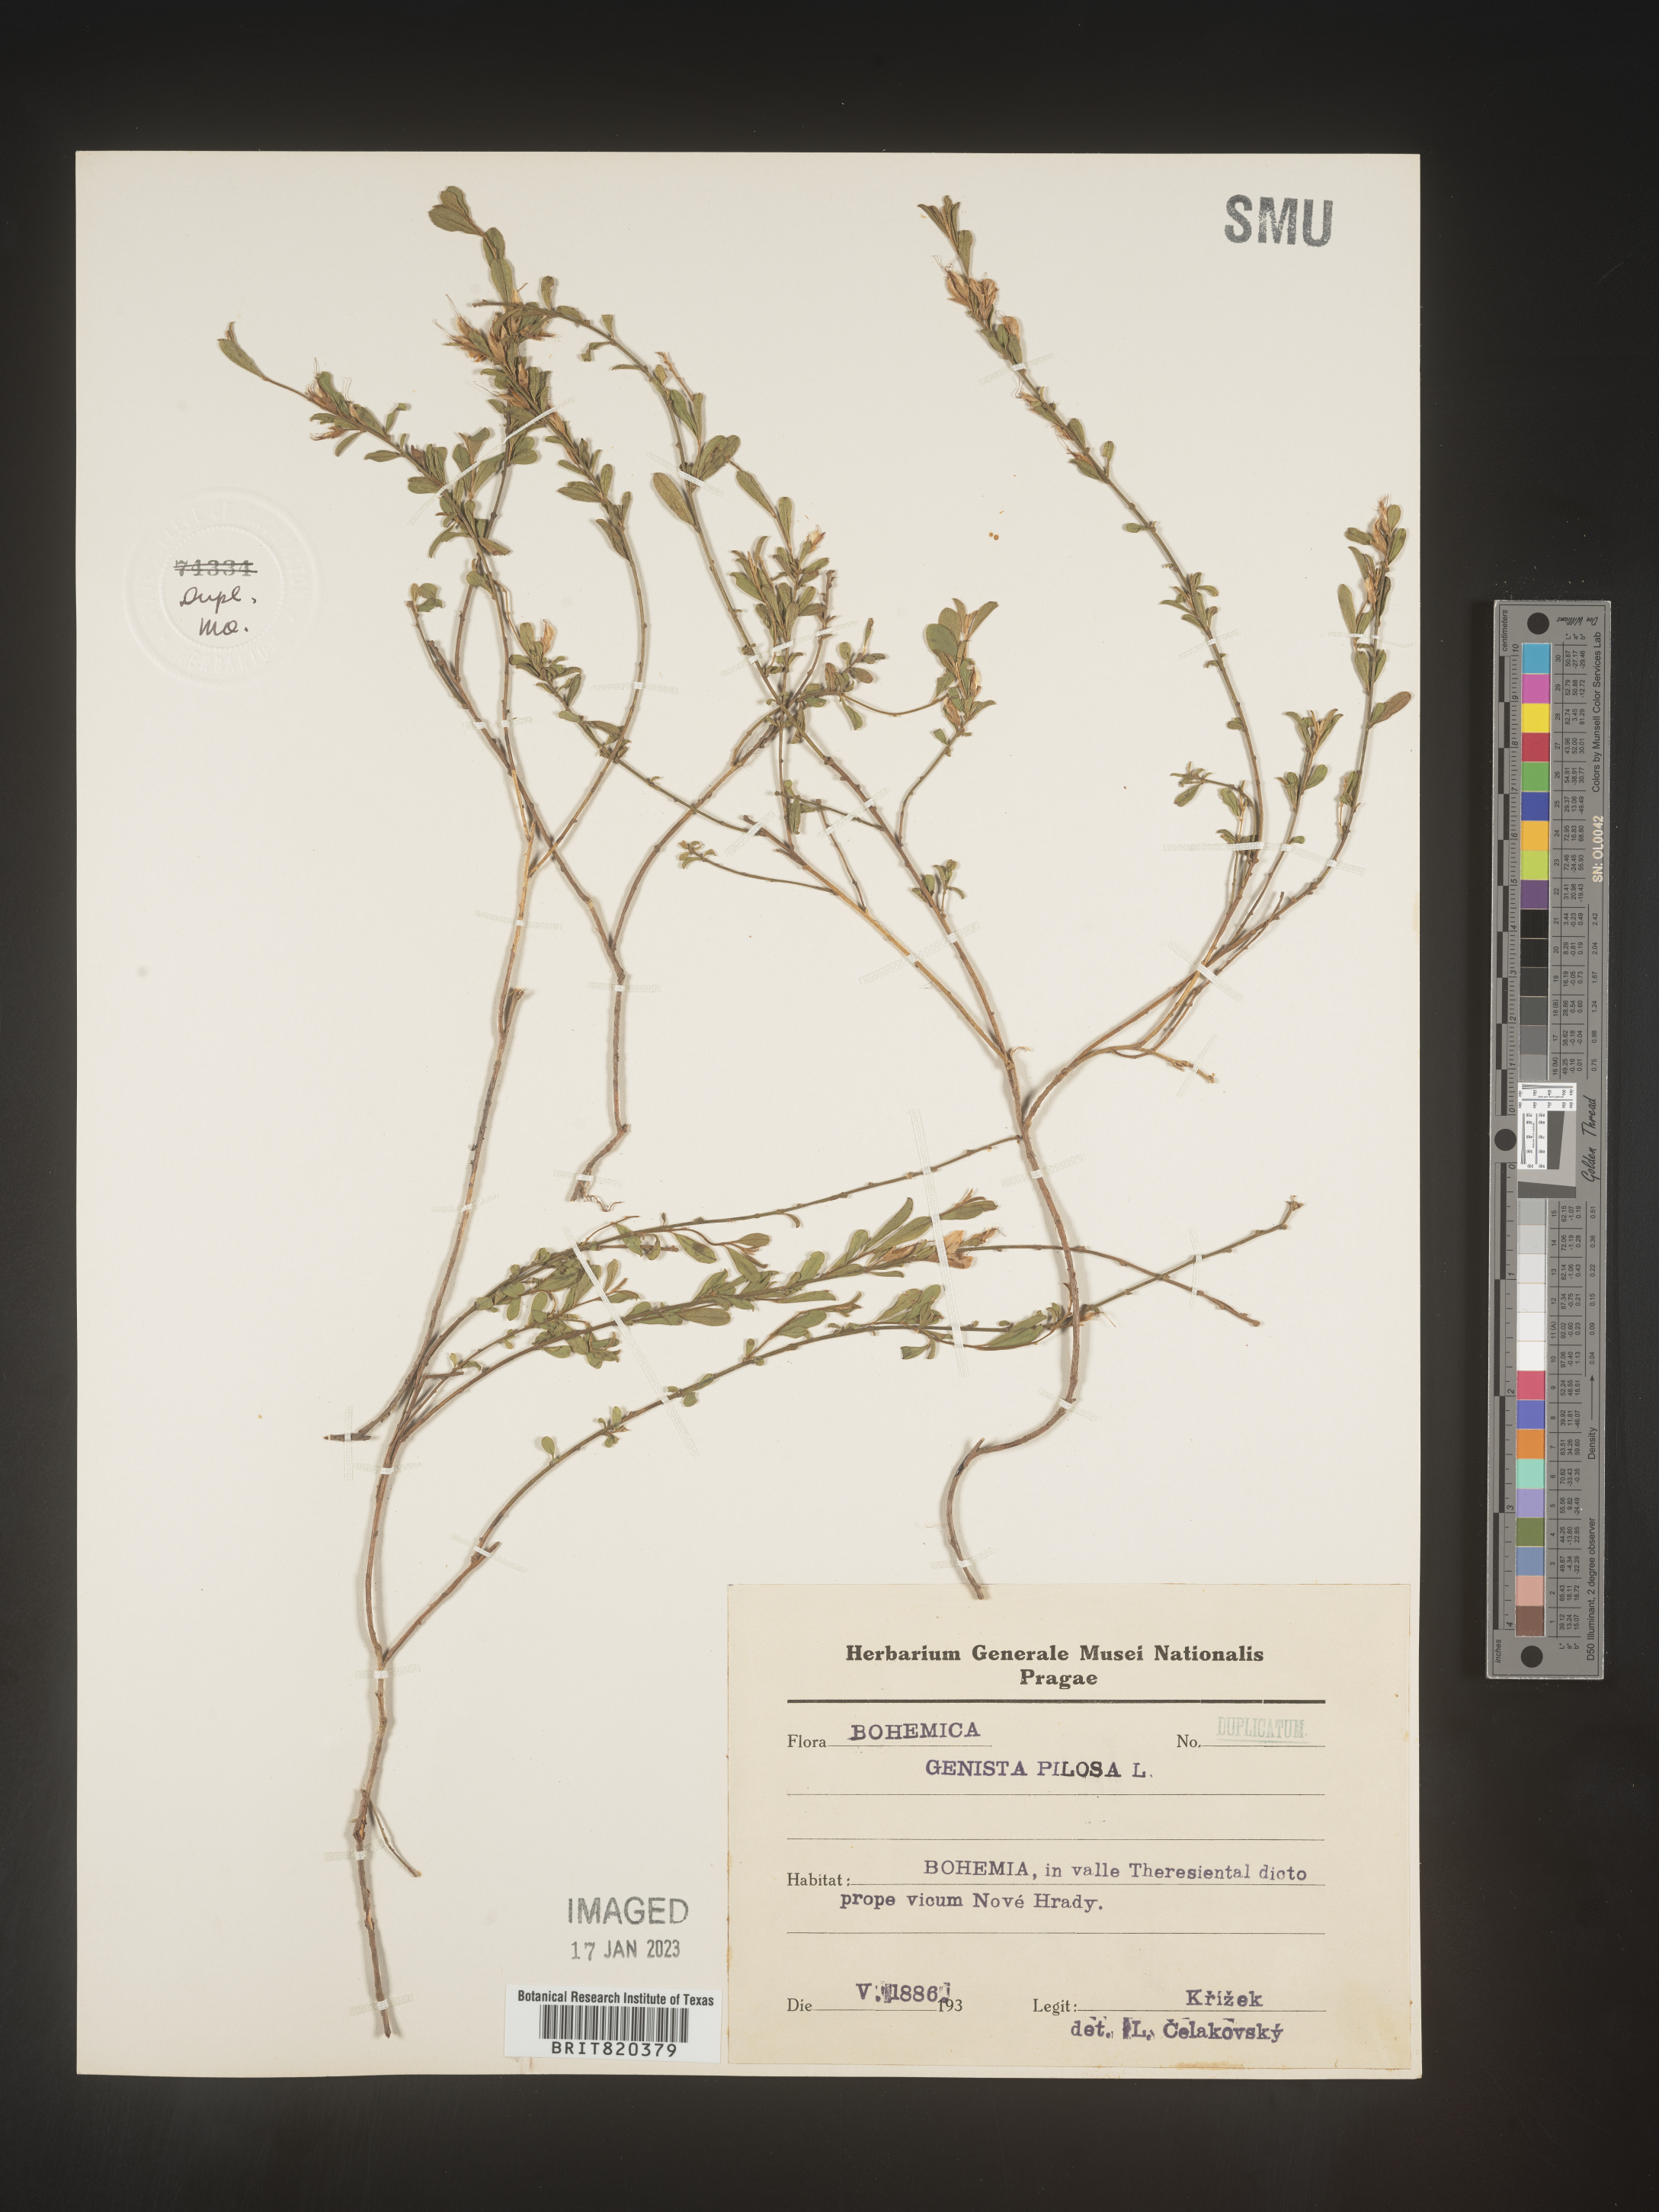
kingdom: Plantae
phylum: Tracheophyta
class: Magnoliopsida
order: Fabales
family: Fabaceae
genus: Genista
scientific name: Genista
